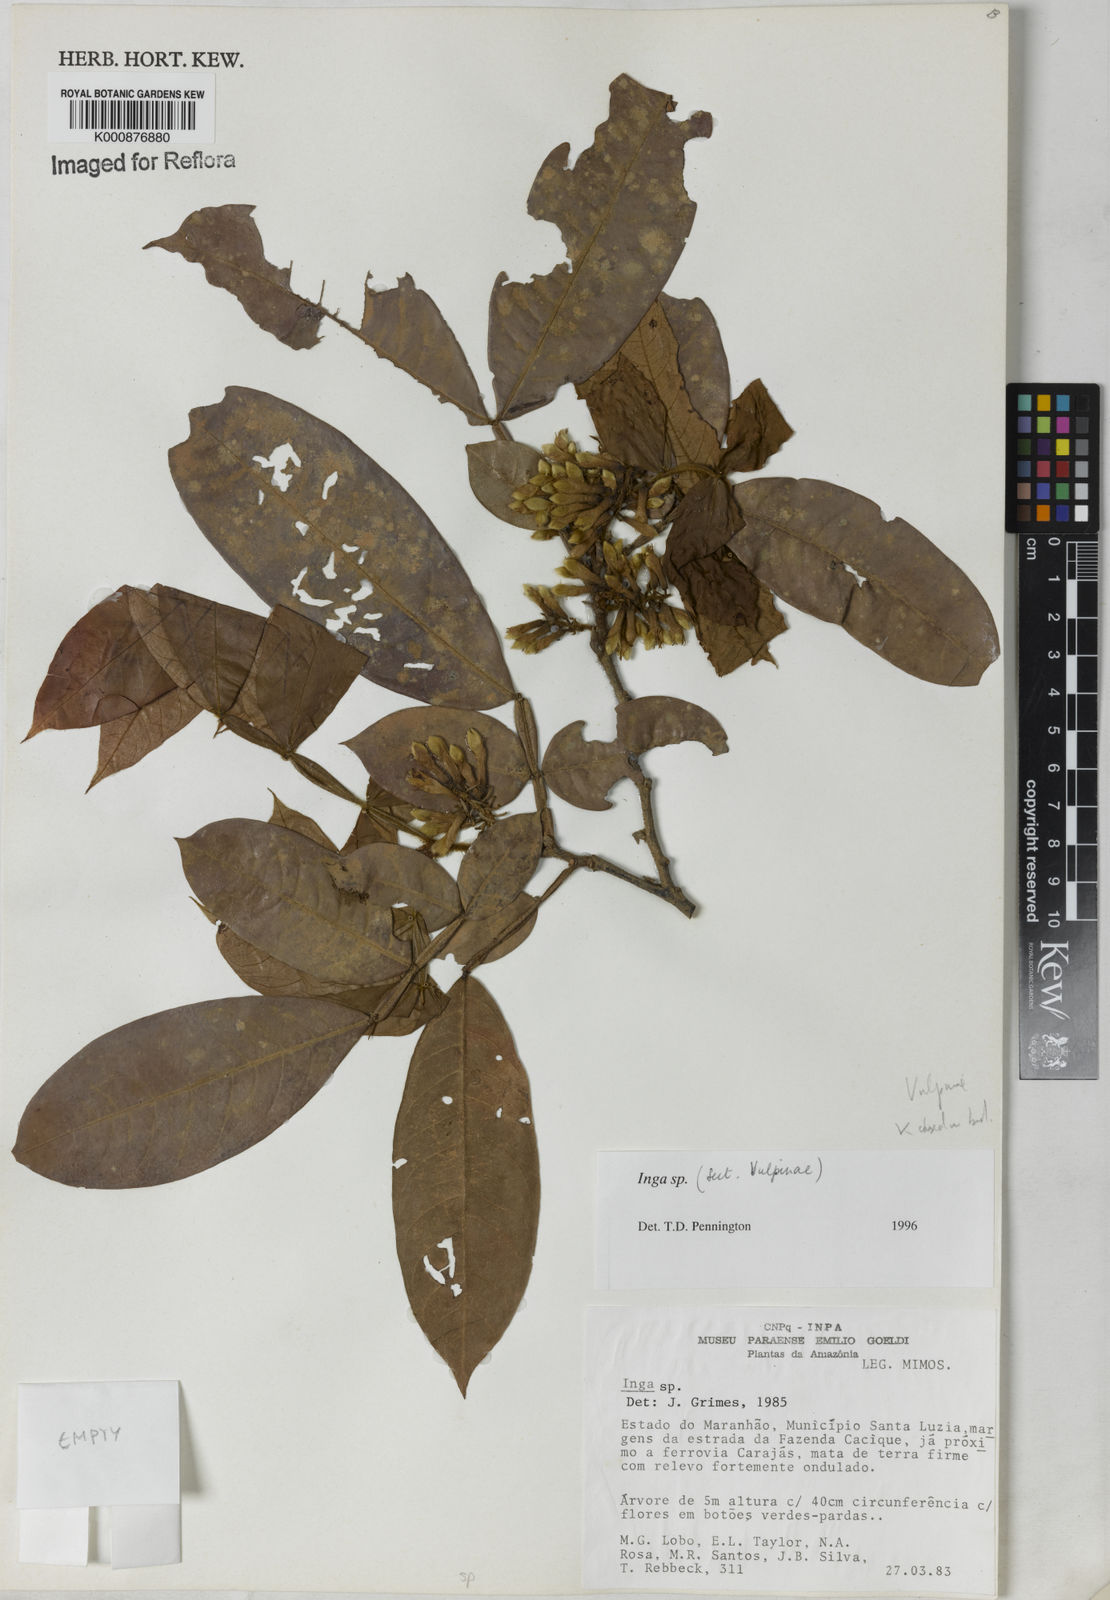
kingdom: Plantae
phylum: Tracheophyta
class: Magnoliopsida
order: Fabales
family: Fabaceae
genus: Inga
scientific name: Inga vulpina
